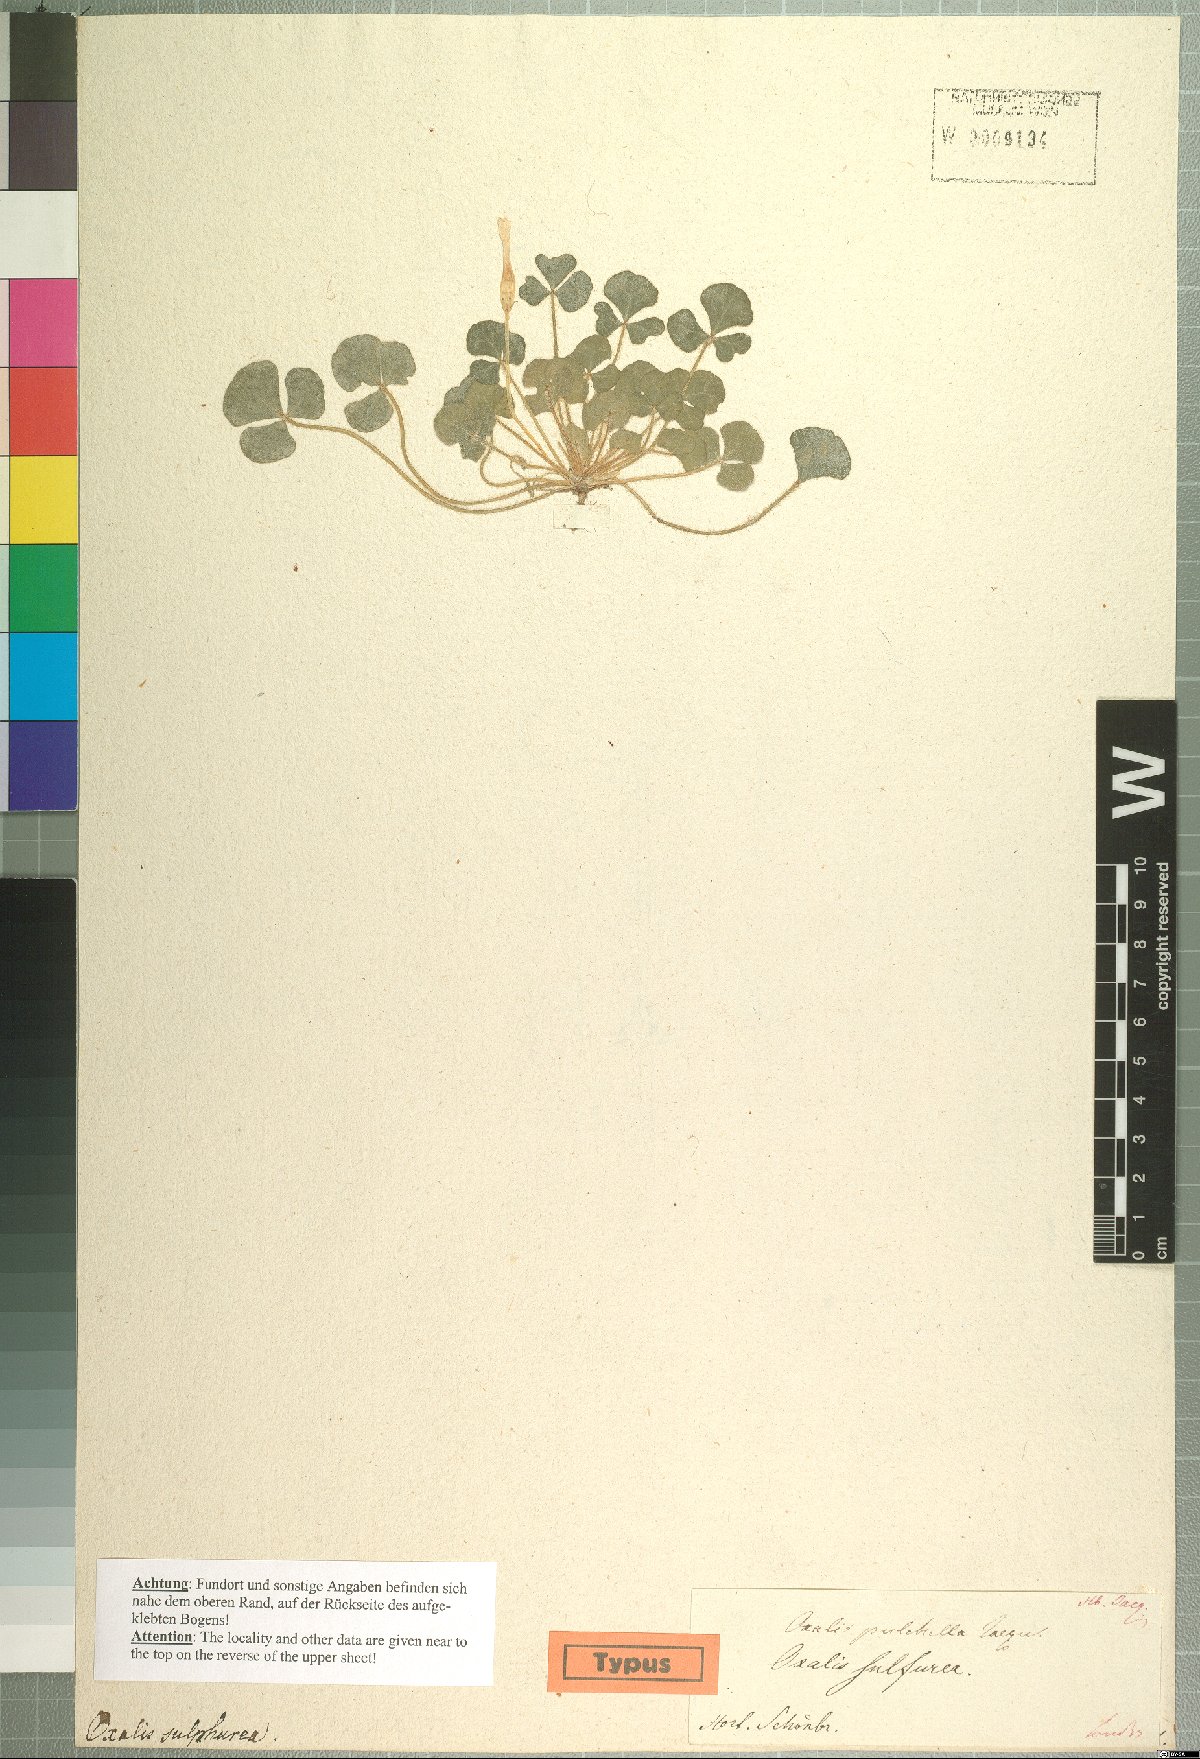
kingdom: Plantae
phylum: Tracheophyta
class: Magnoliopsida
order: Oxalidales
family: Oxalidaceae
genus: Oxalis
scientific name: Oxalis pulchella
